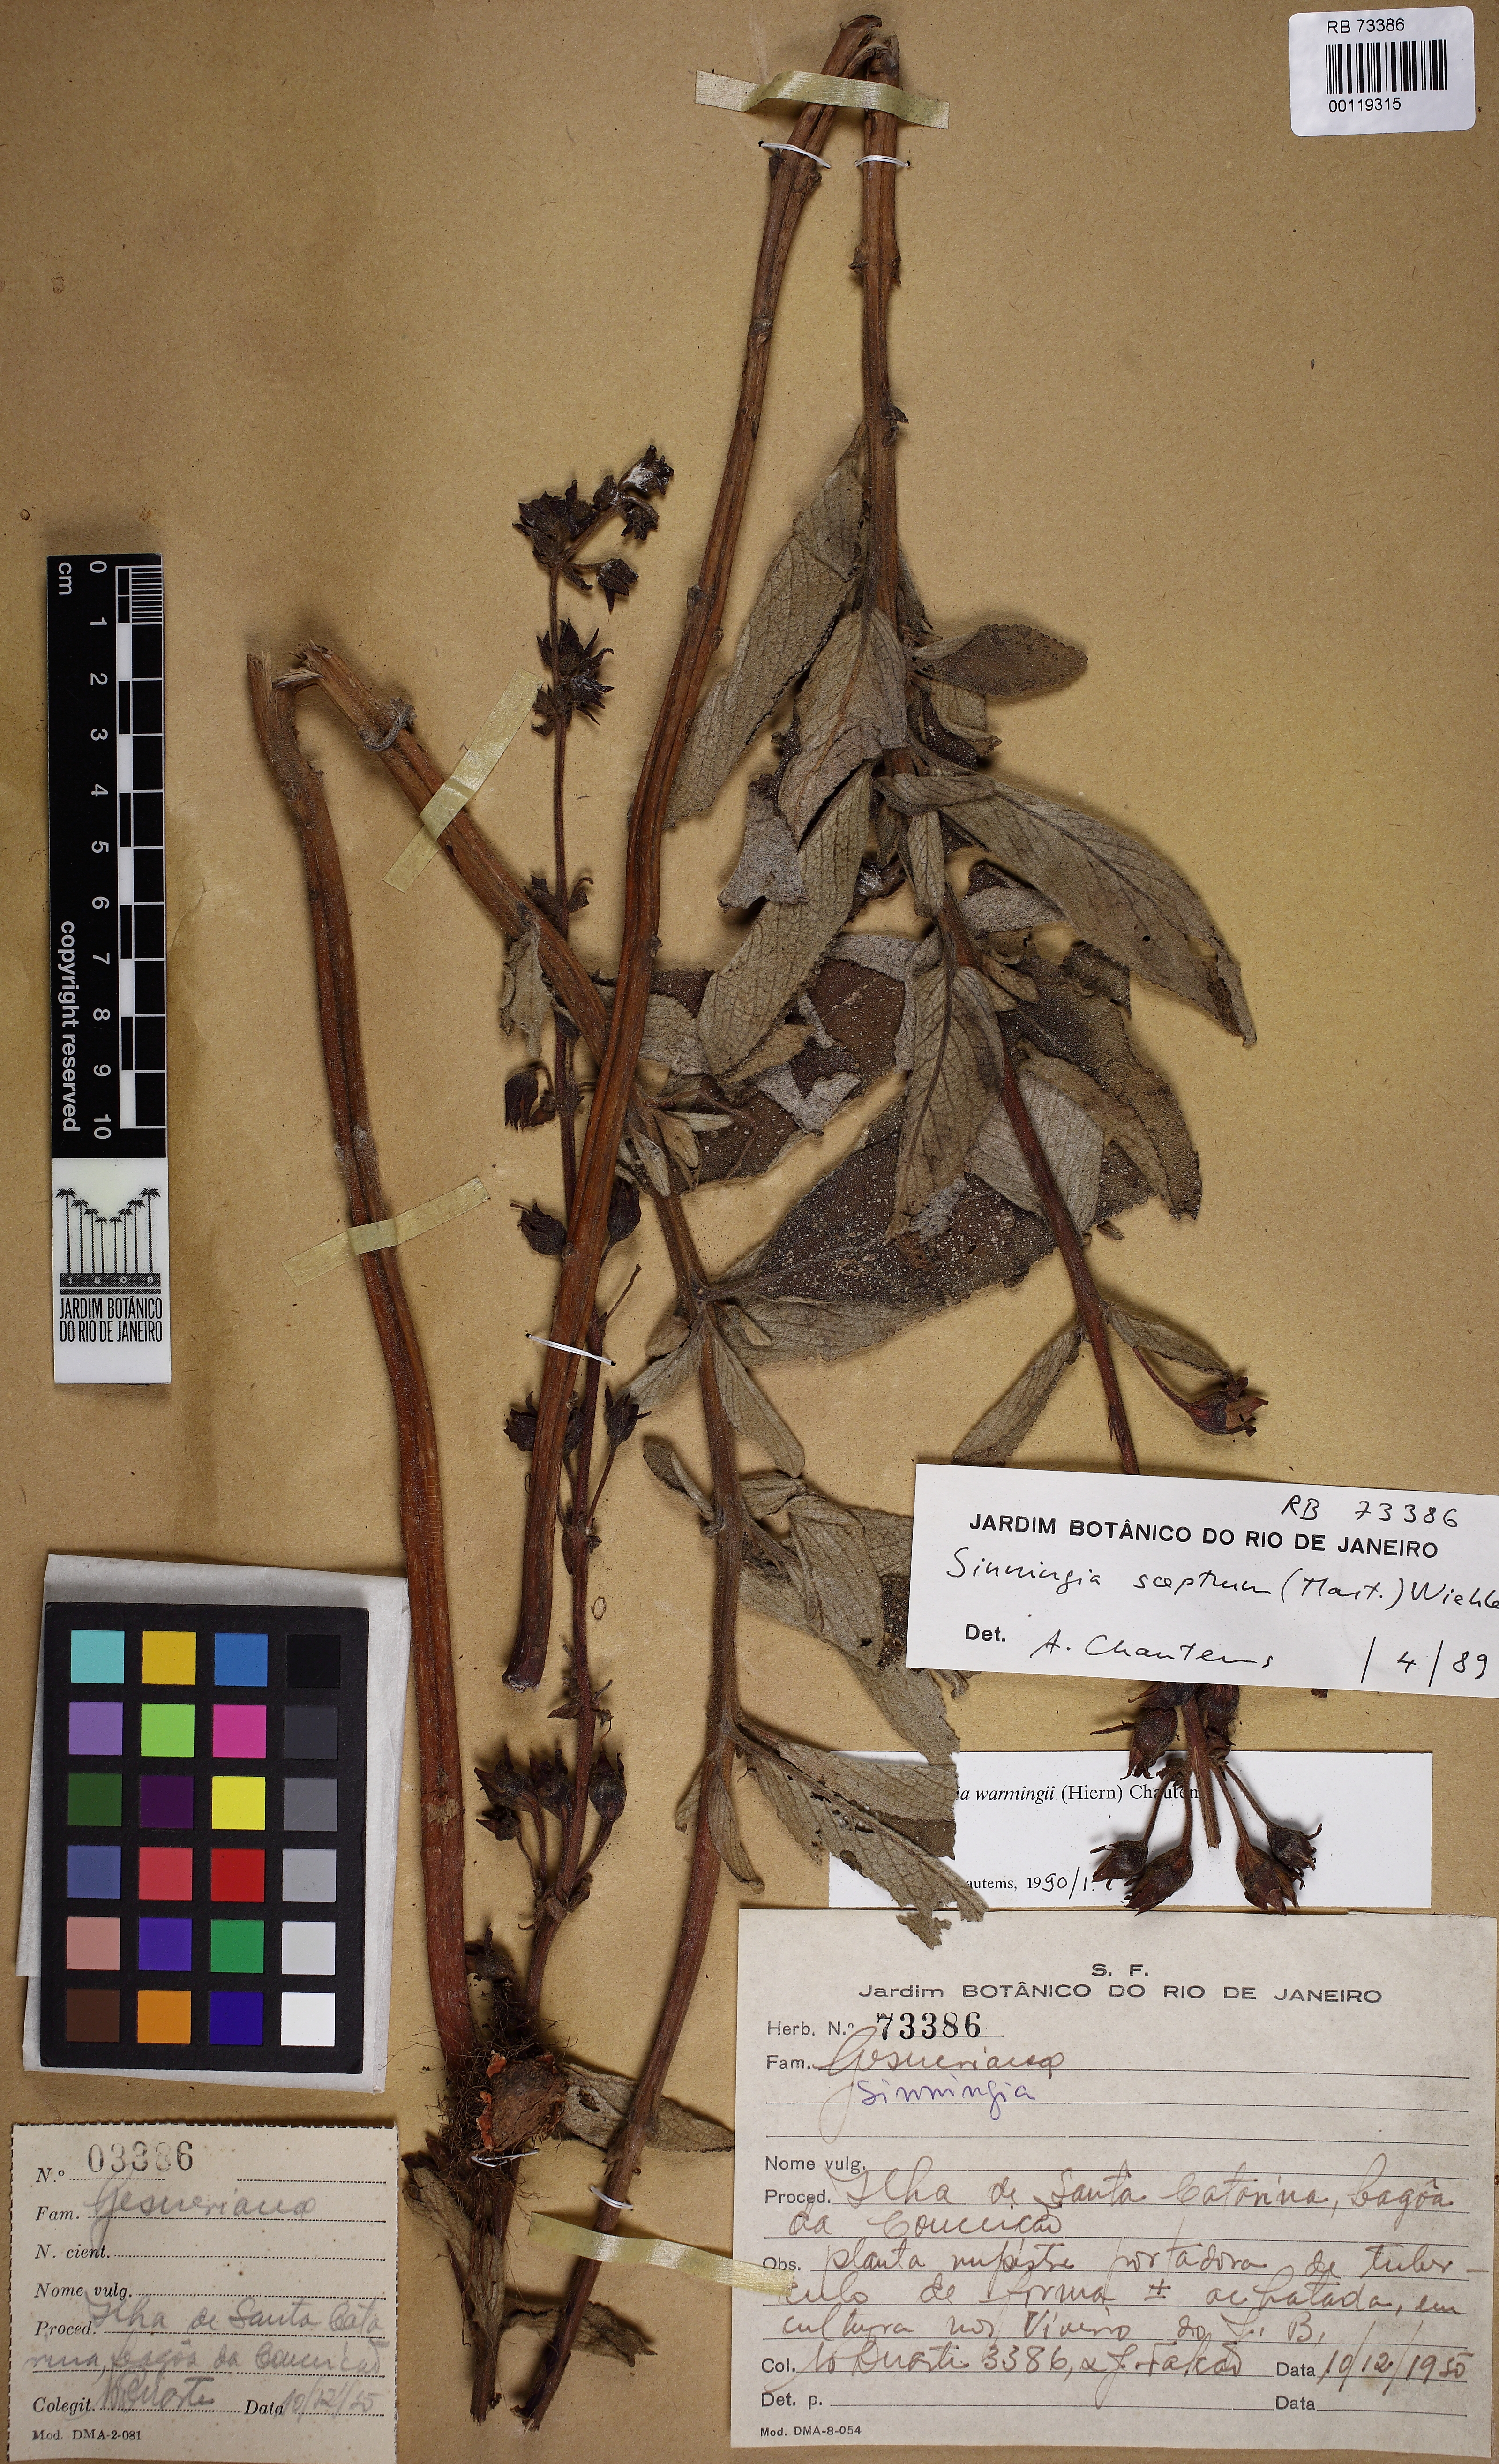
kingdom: Plantae
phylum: Tracheophyta
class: Magnoliopsida
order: Lamiales
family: Gesneriaceae
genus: Sinningia
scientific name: Sinningia warmingii
